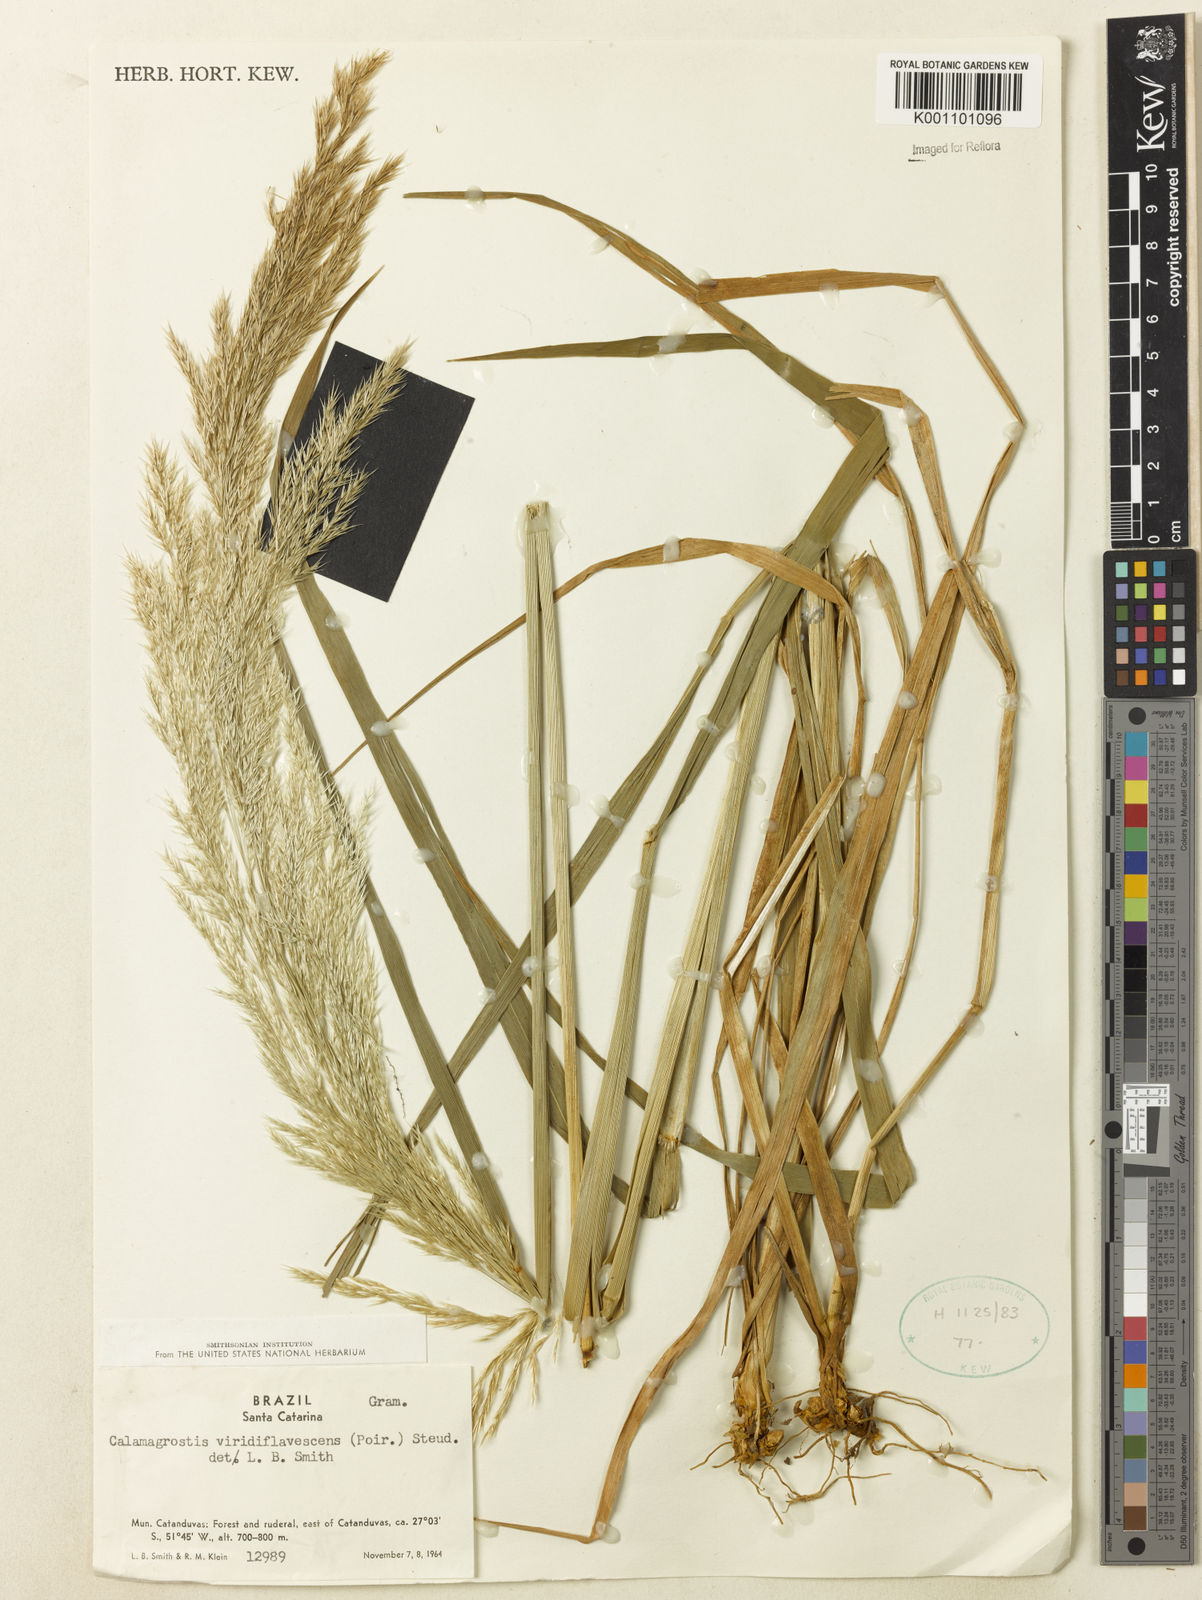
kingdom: Plantae
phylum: Tracheophyta
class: Liliopsida
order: Poales
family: Poaceae
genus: Cinnagrostis
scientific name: Cinnagrostis viridiflavescens
